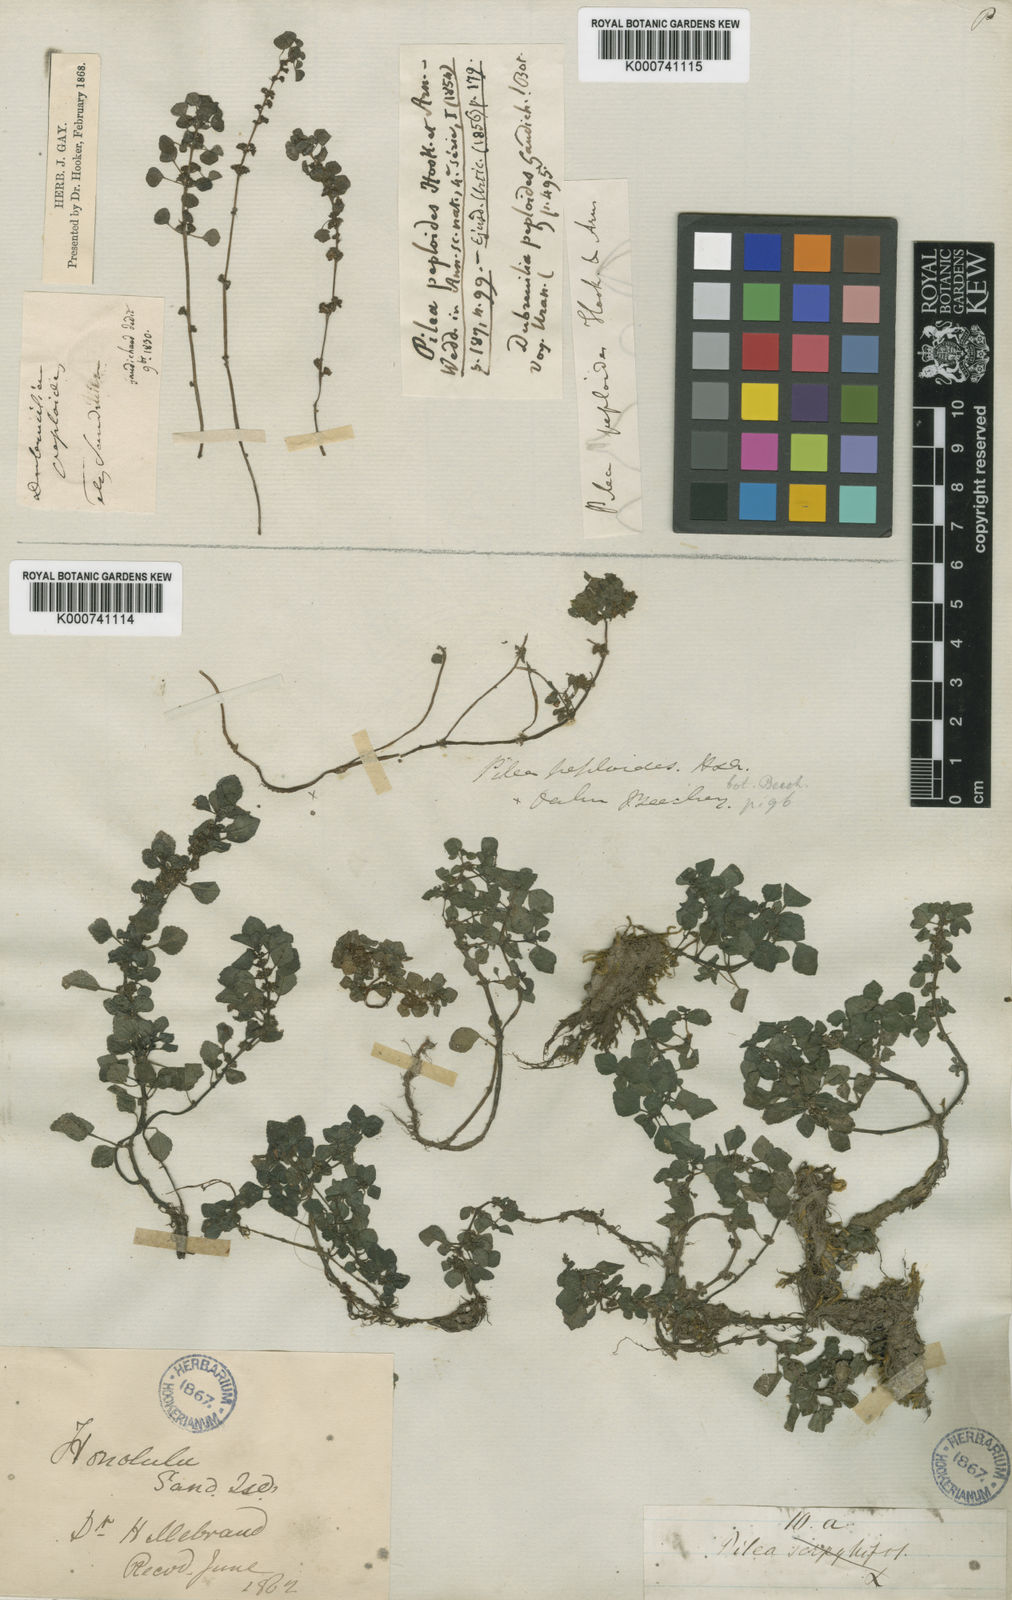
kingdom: Plantae
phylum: Tracheophyta
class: Magnoliopsida
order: Rosales
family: Urticaceae
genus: Pilea
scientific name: Pilea peploides
